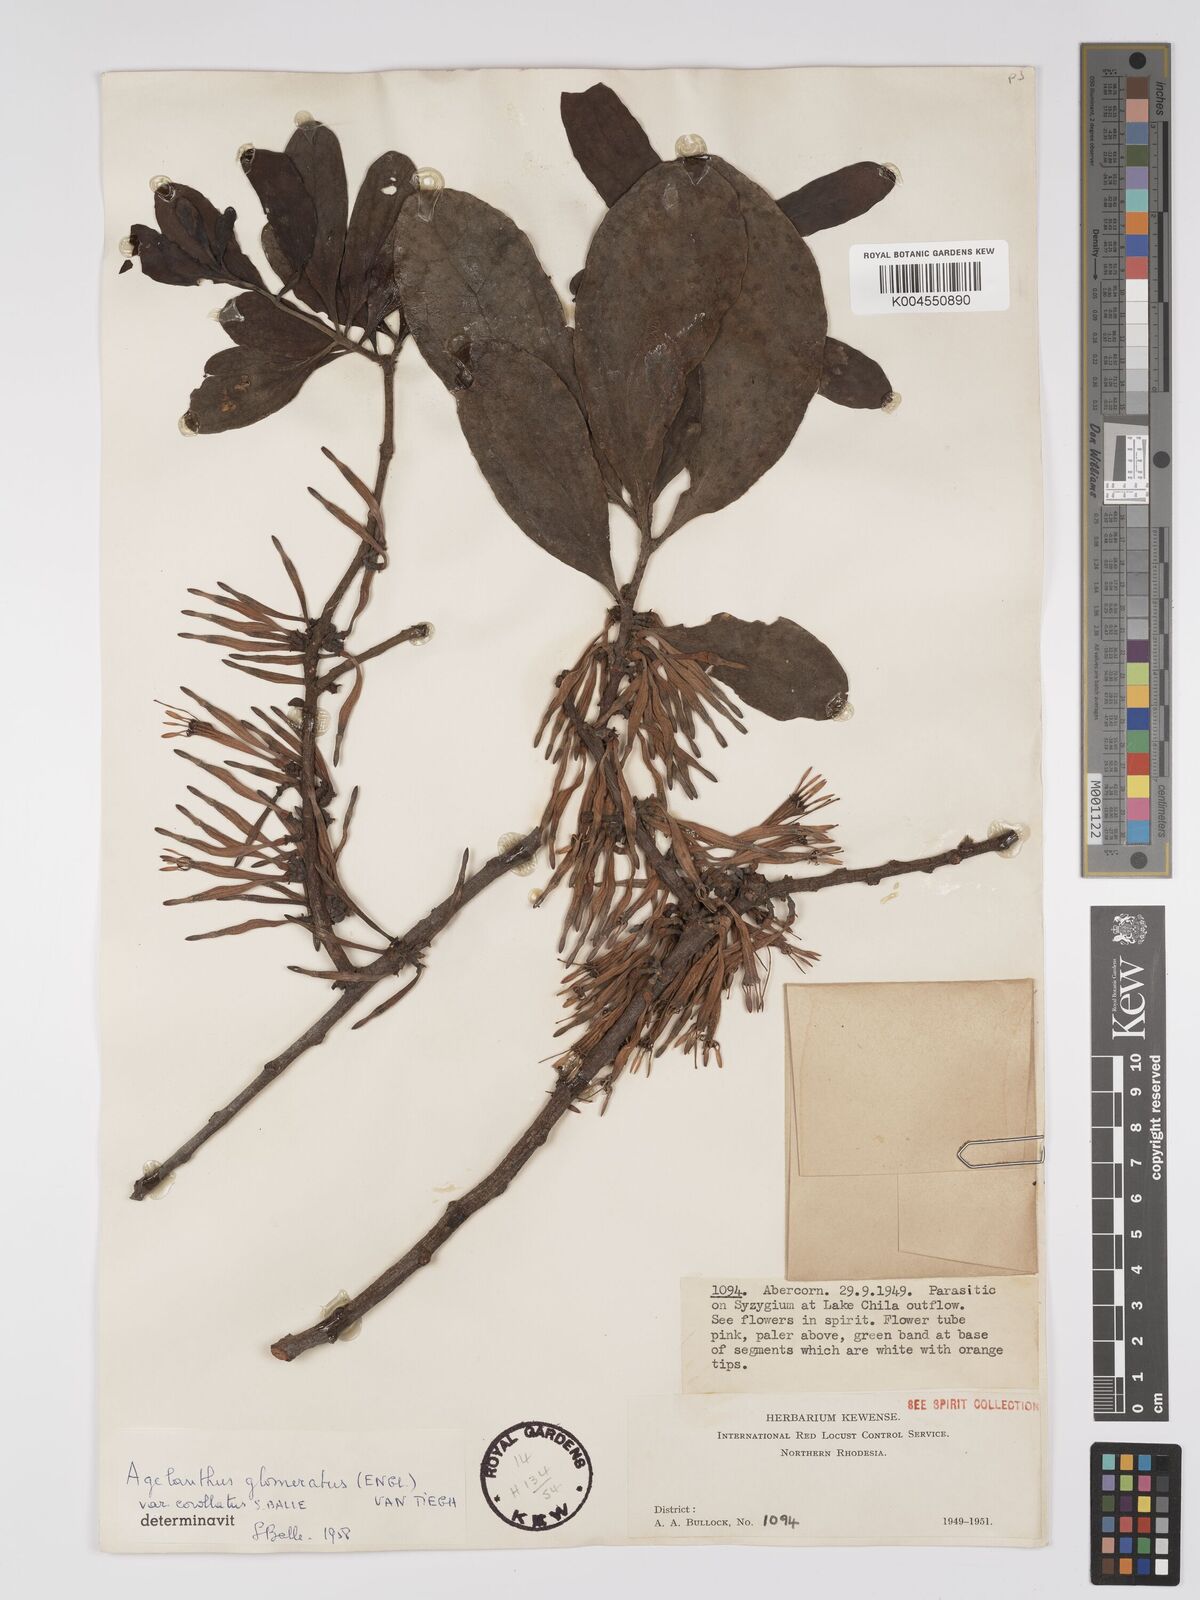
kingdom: Plantae
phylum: Tracheophyta
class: Magnoliopsida
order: Santalales
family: Loranthaceae
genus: Agelanthus
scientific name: Agelanthus zizyphifolius
